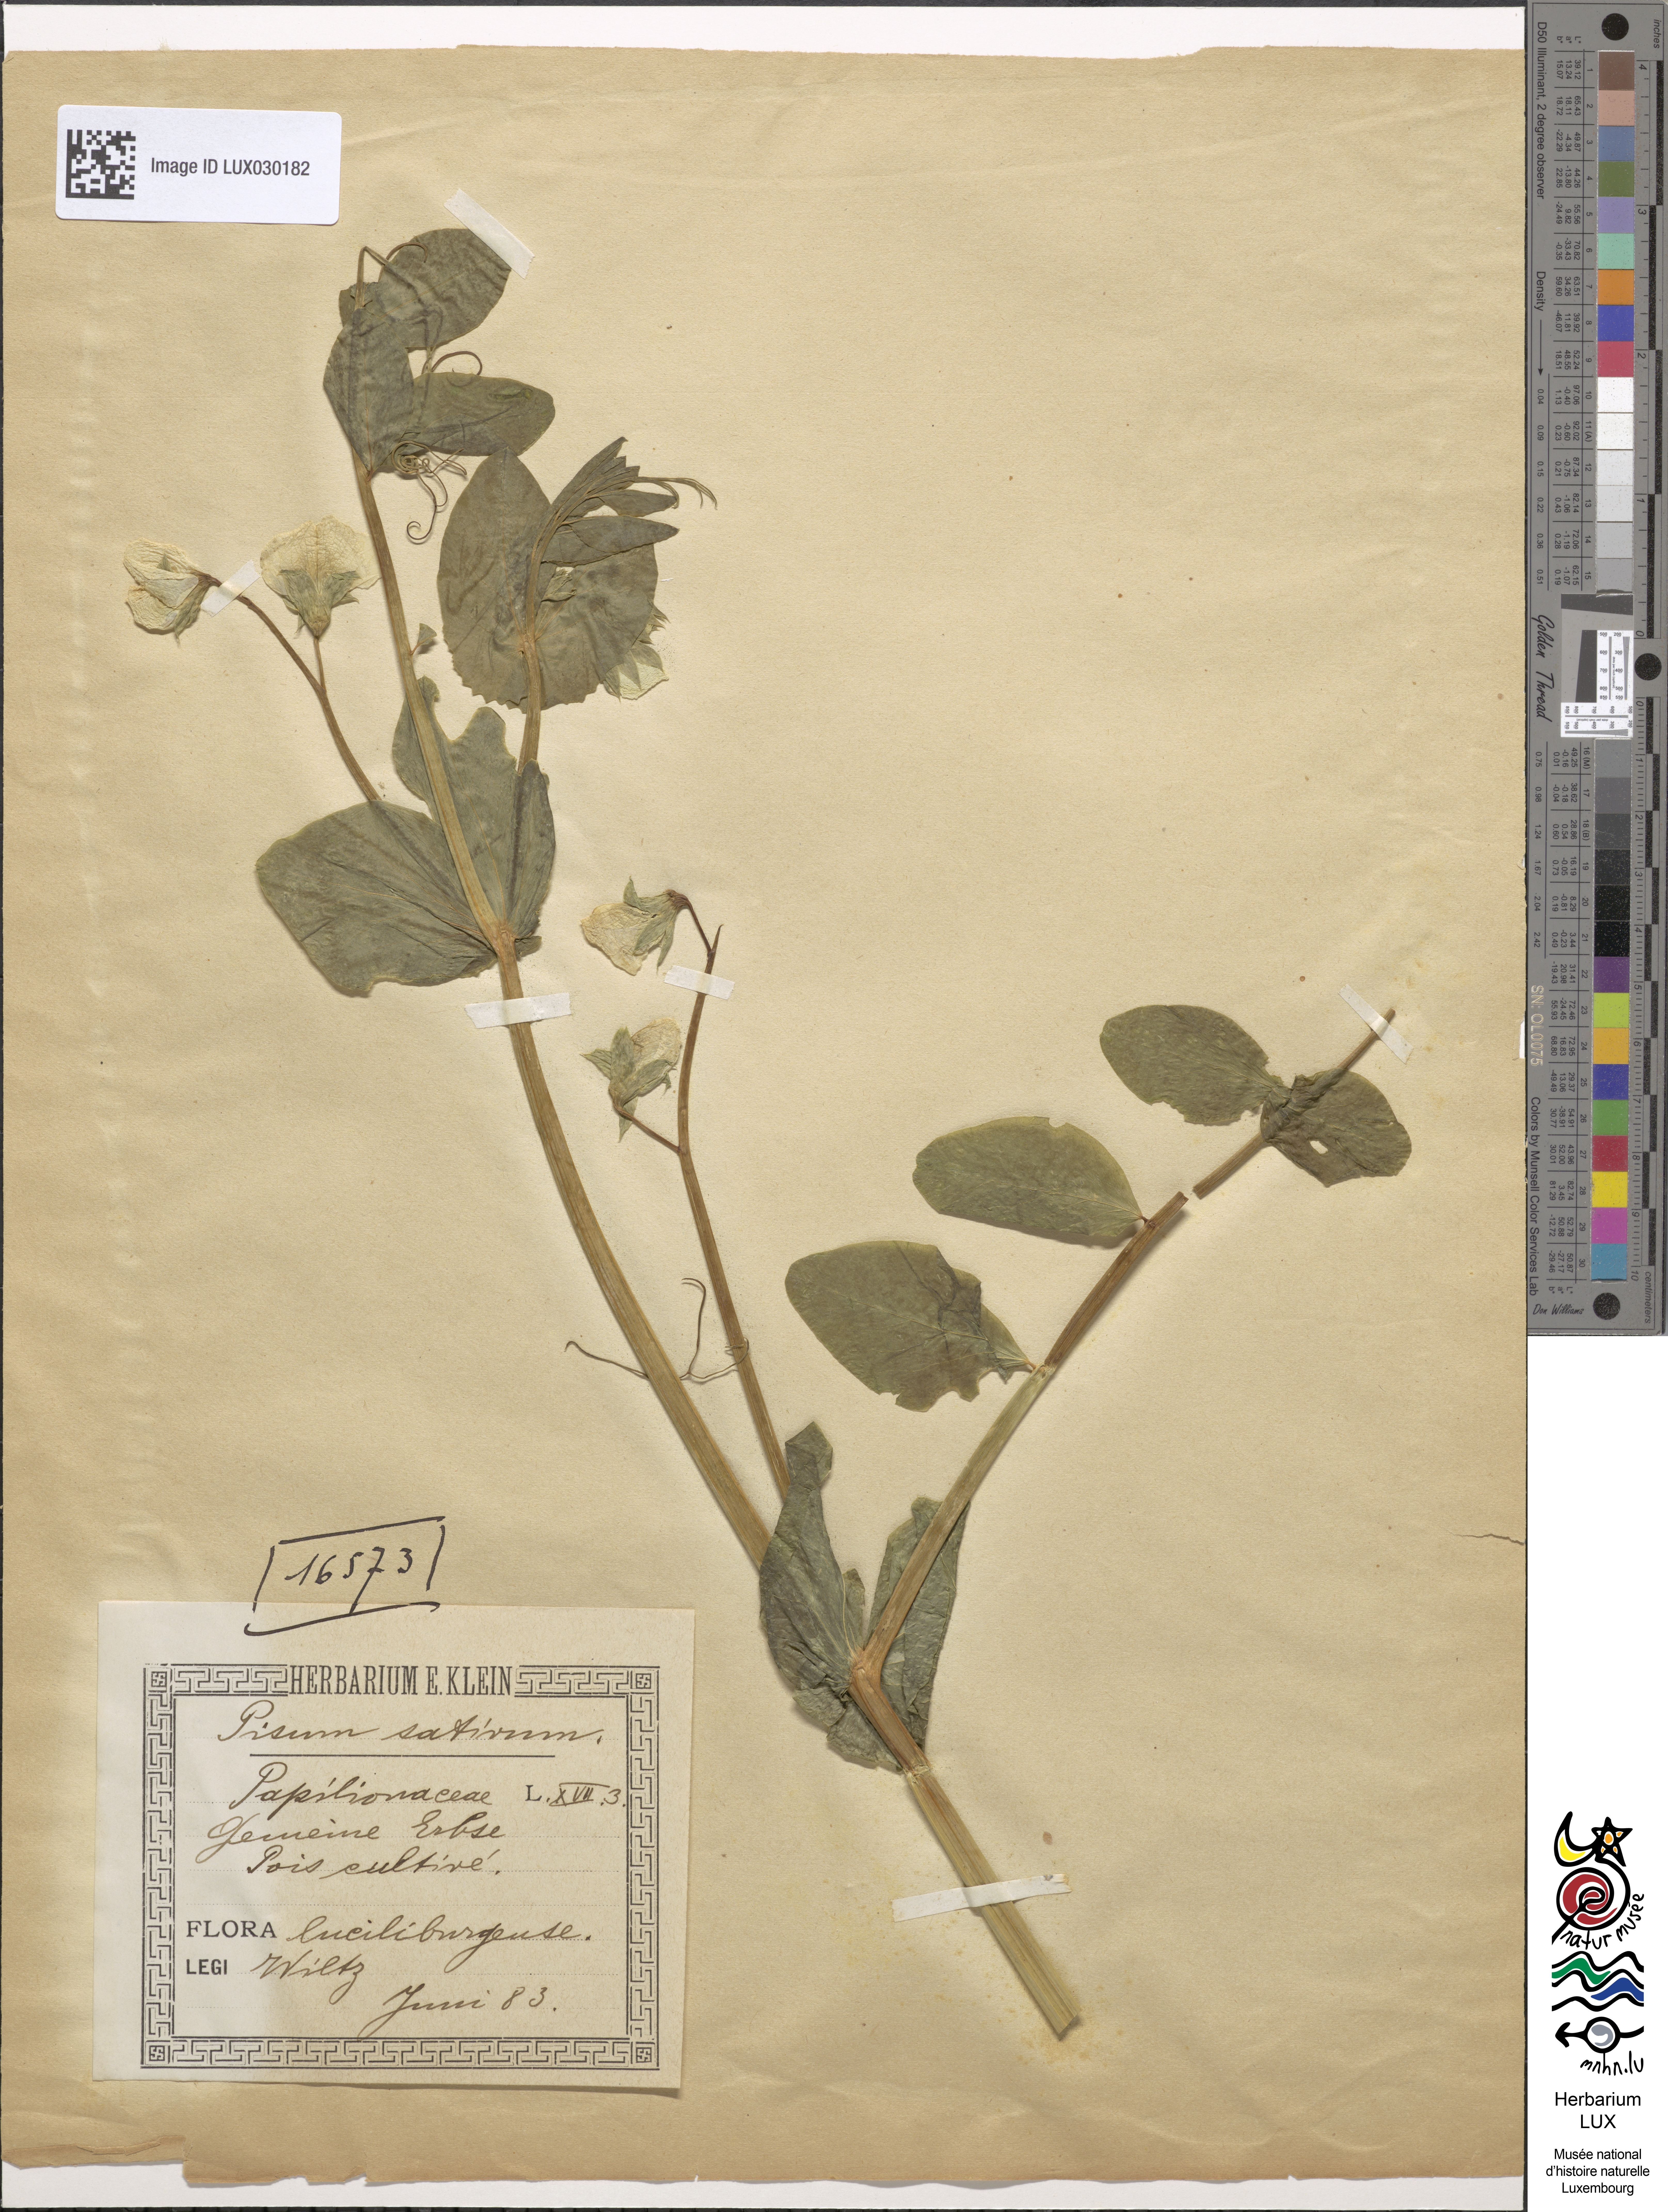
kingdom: Plantae
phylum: Tracheophyta
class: Magnoliopsida
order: Fabales
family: Fabaceae
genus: Lathyrus
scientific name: Lathyrus oleraceus
